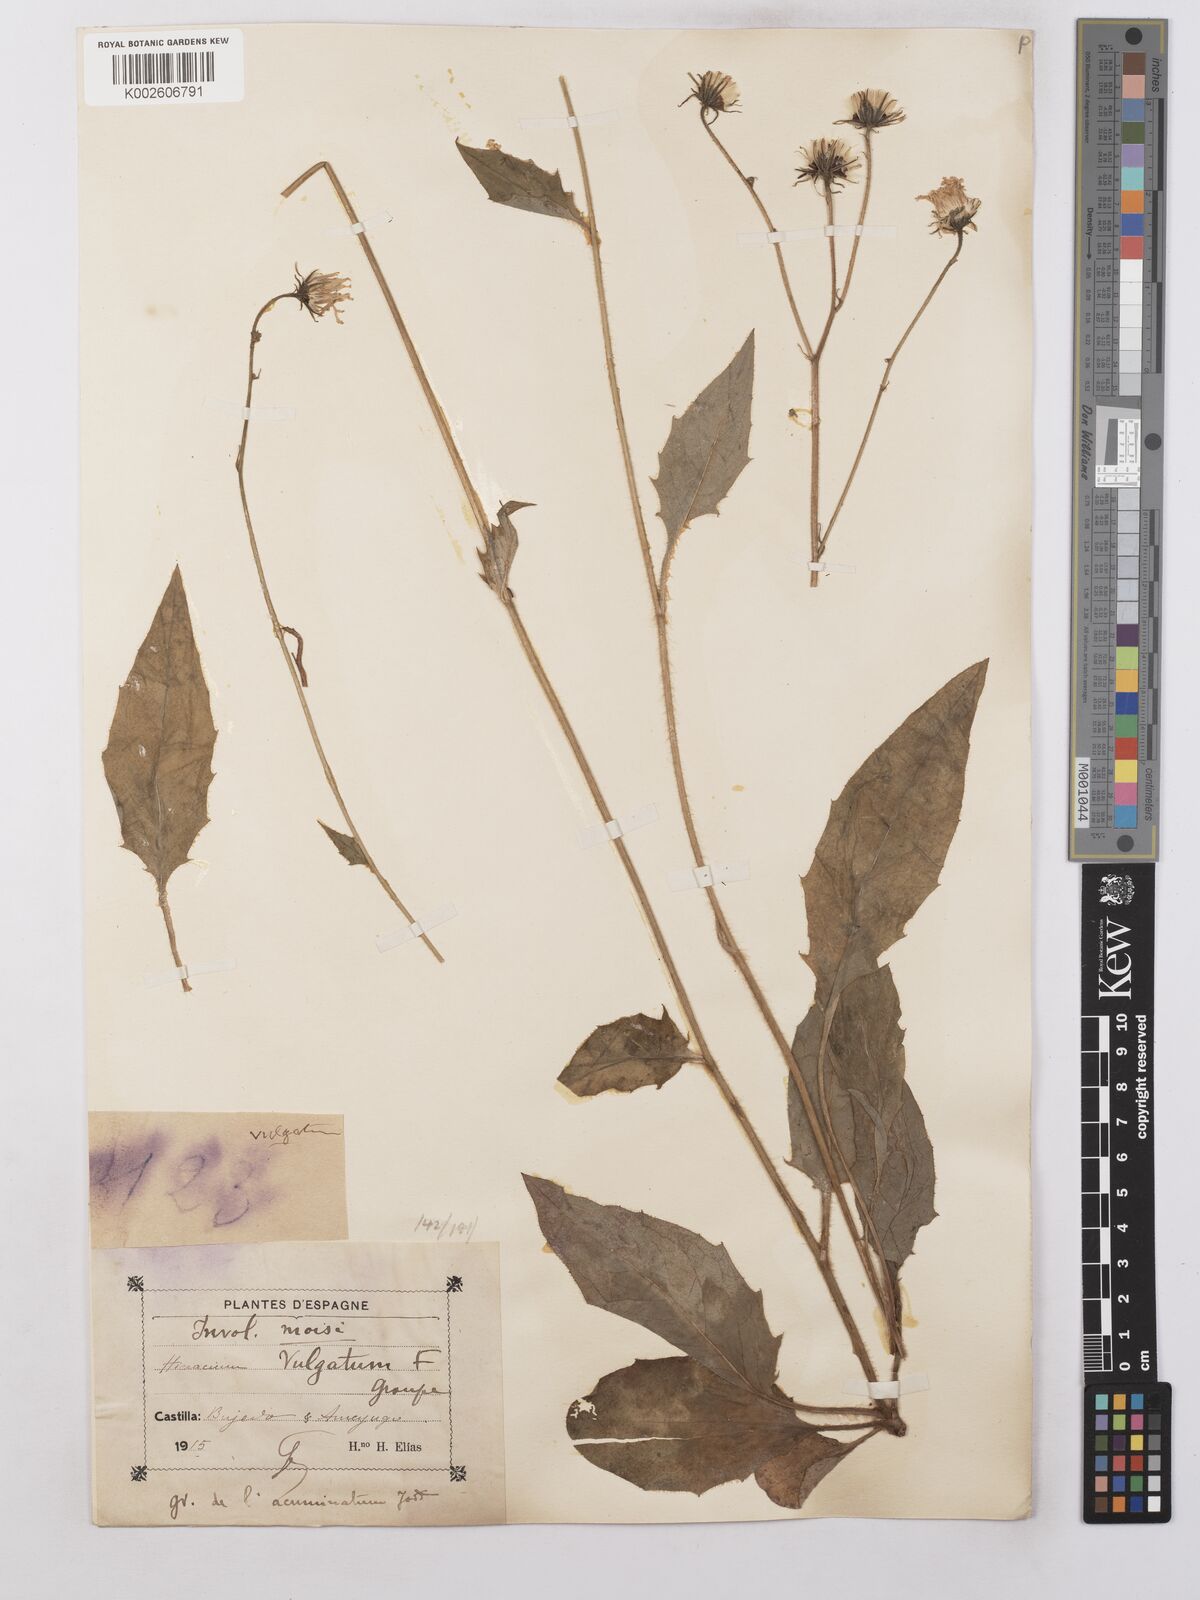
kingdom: Plantae
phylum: Tracheophyta
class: Magnoliopsida
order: Asterales
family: Asteraceae
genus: Hieracium
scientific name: Hieracium lachenalii
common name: Common hawkweed
